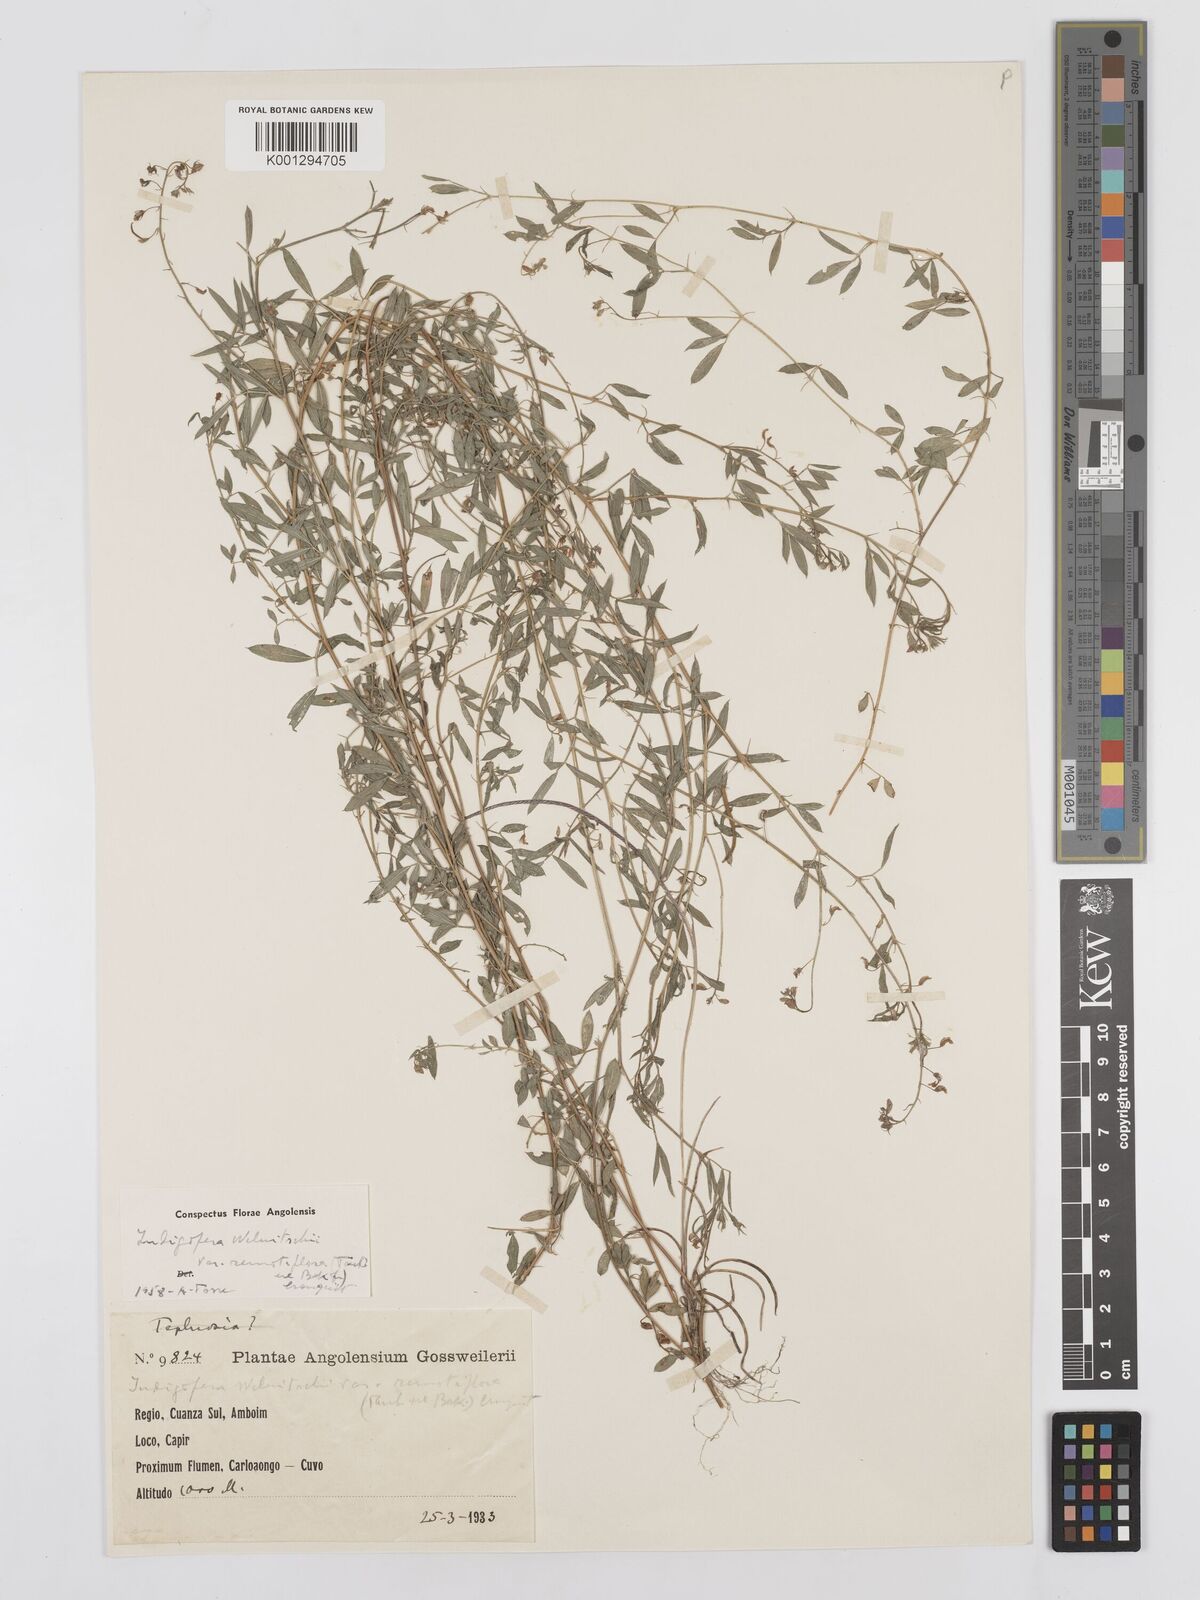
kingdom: Plantae
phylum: Tracheophyta
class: Magnoliopsida
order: Fabales
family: Fabaceae
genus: Microcharis
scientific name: Microcharis welwitschii
